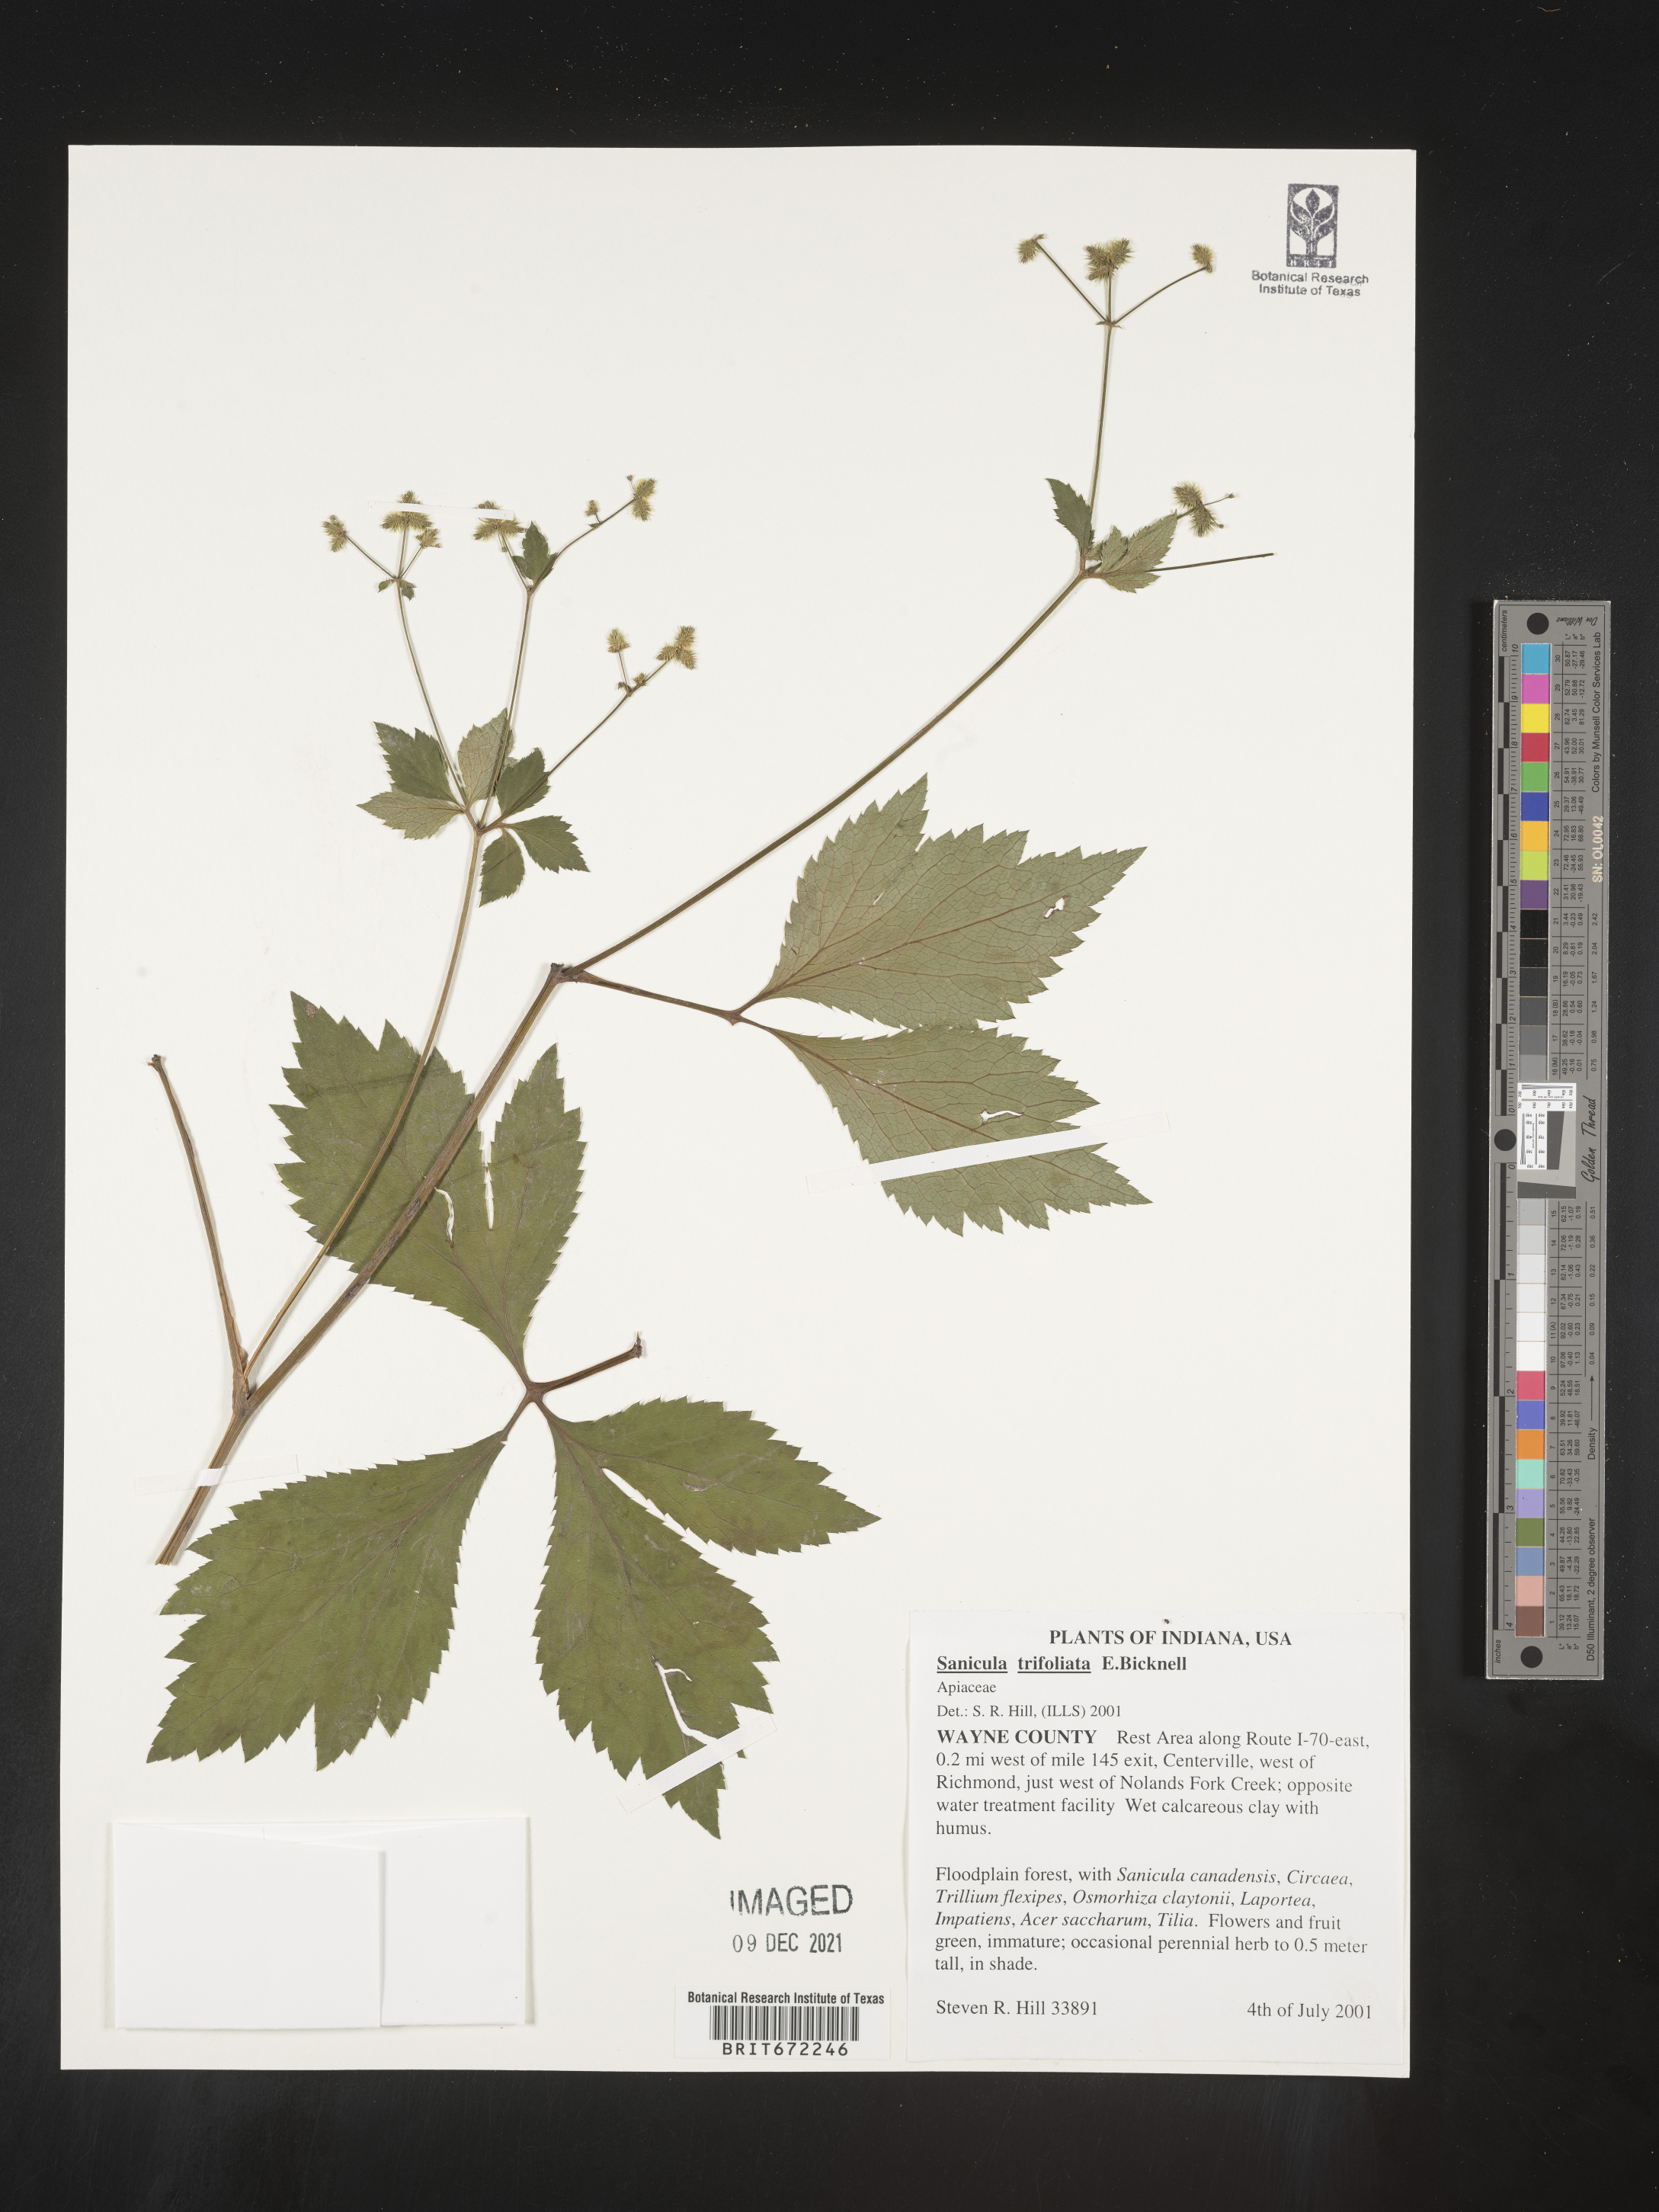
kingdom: Plantae
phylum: Tracheophyta
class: Magnoliopsida
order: Apiales
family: Apiaceae
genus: Sanicula
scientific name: Sanicula
